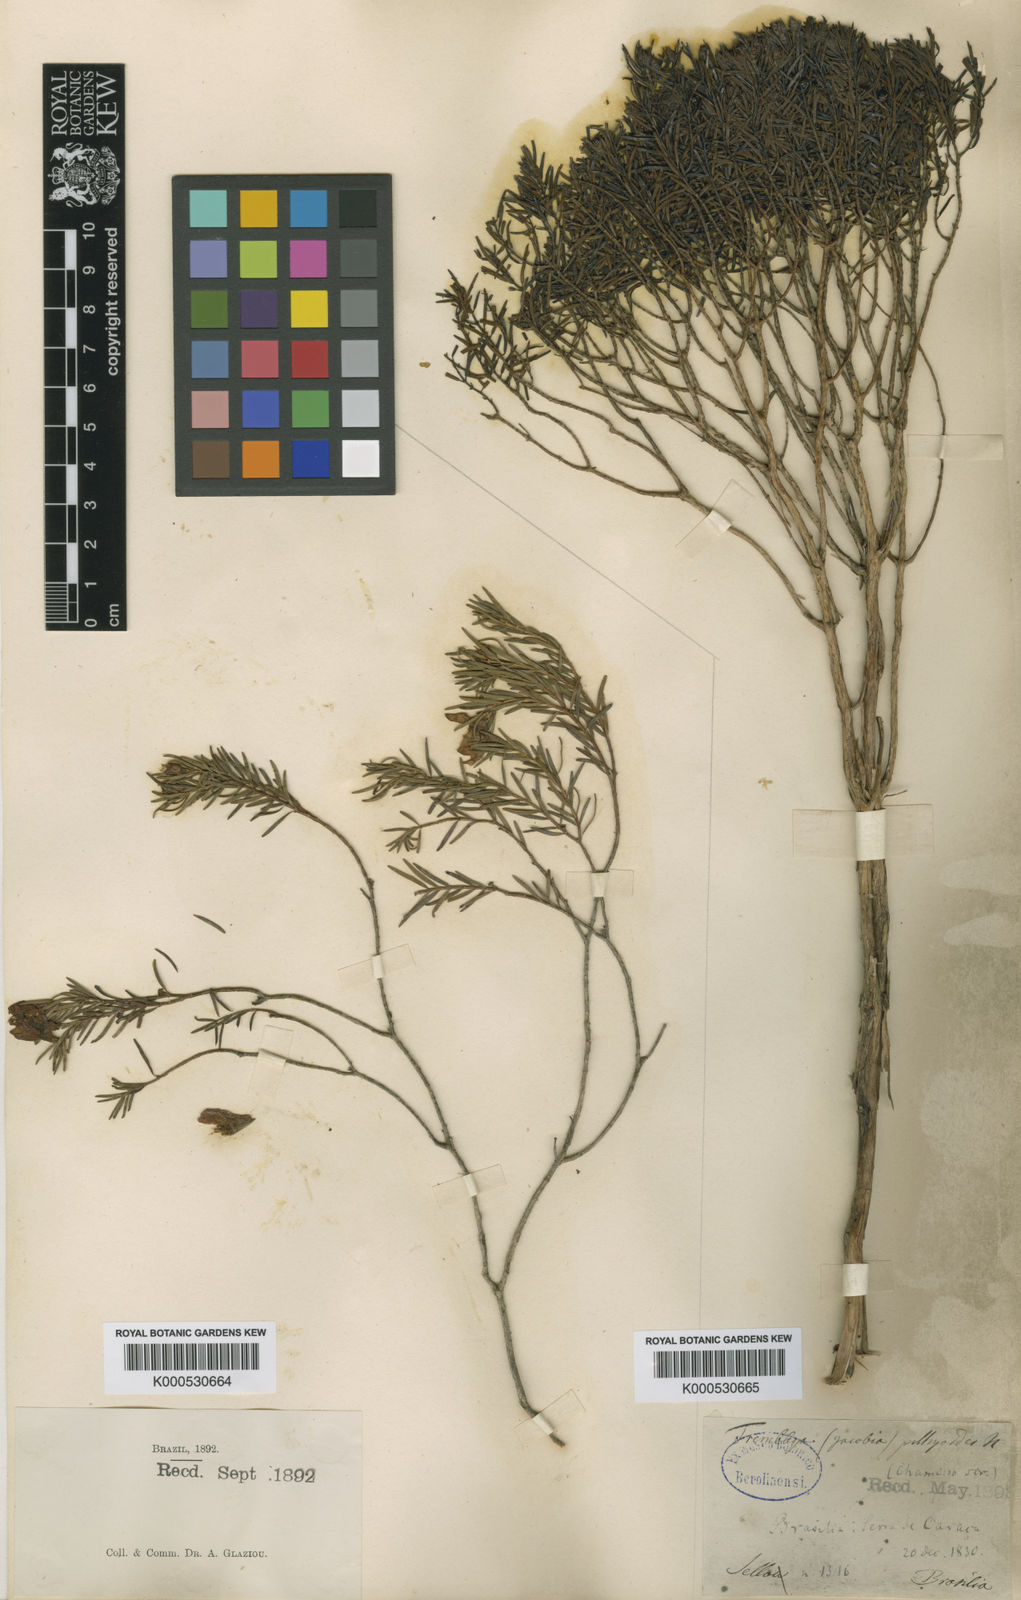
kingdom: Plantae
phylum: Tracheophyta
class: Magnoliopsida
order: Myrtales
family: Melastomataceae
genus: Microlicia
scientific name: Microlicia pithyoides
